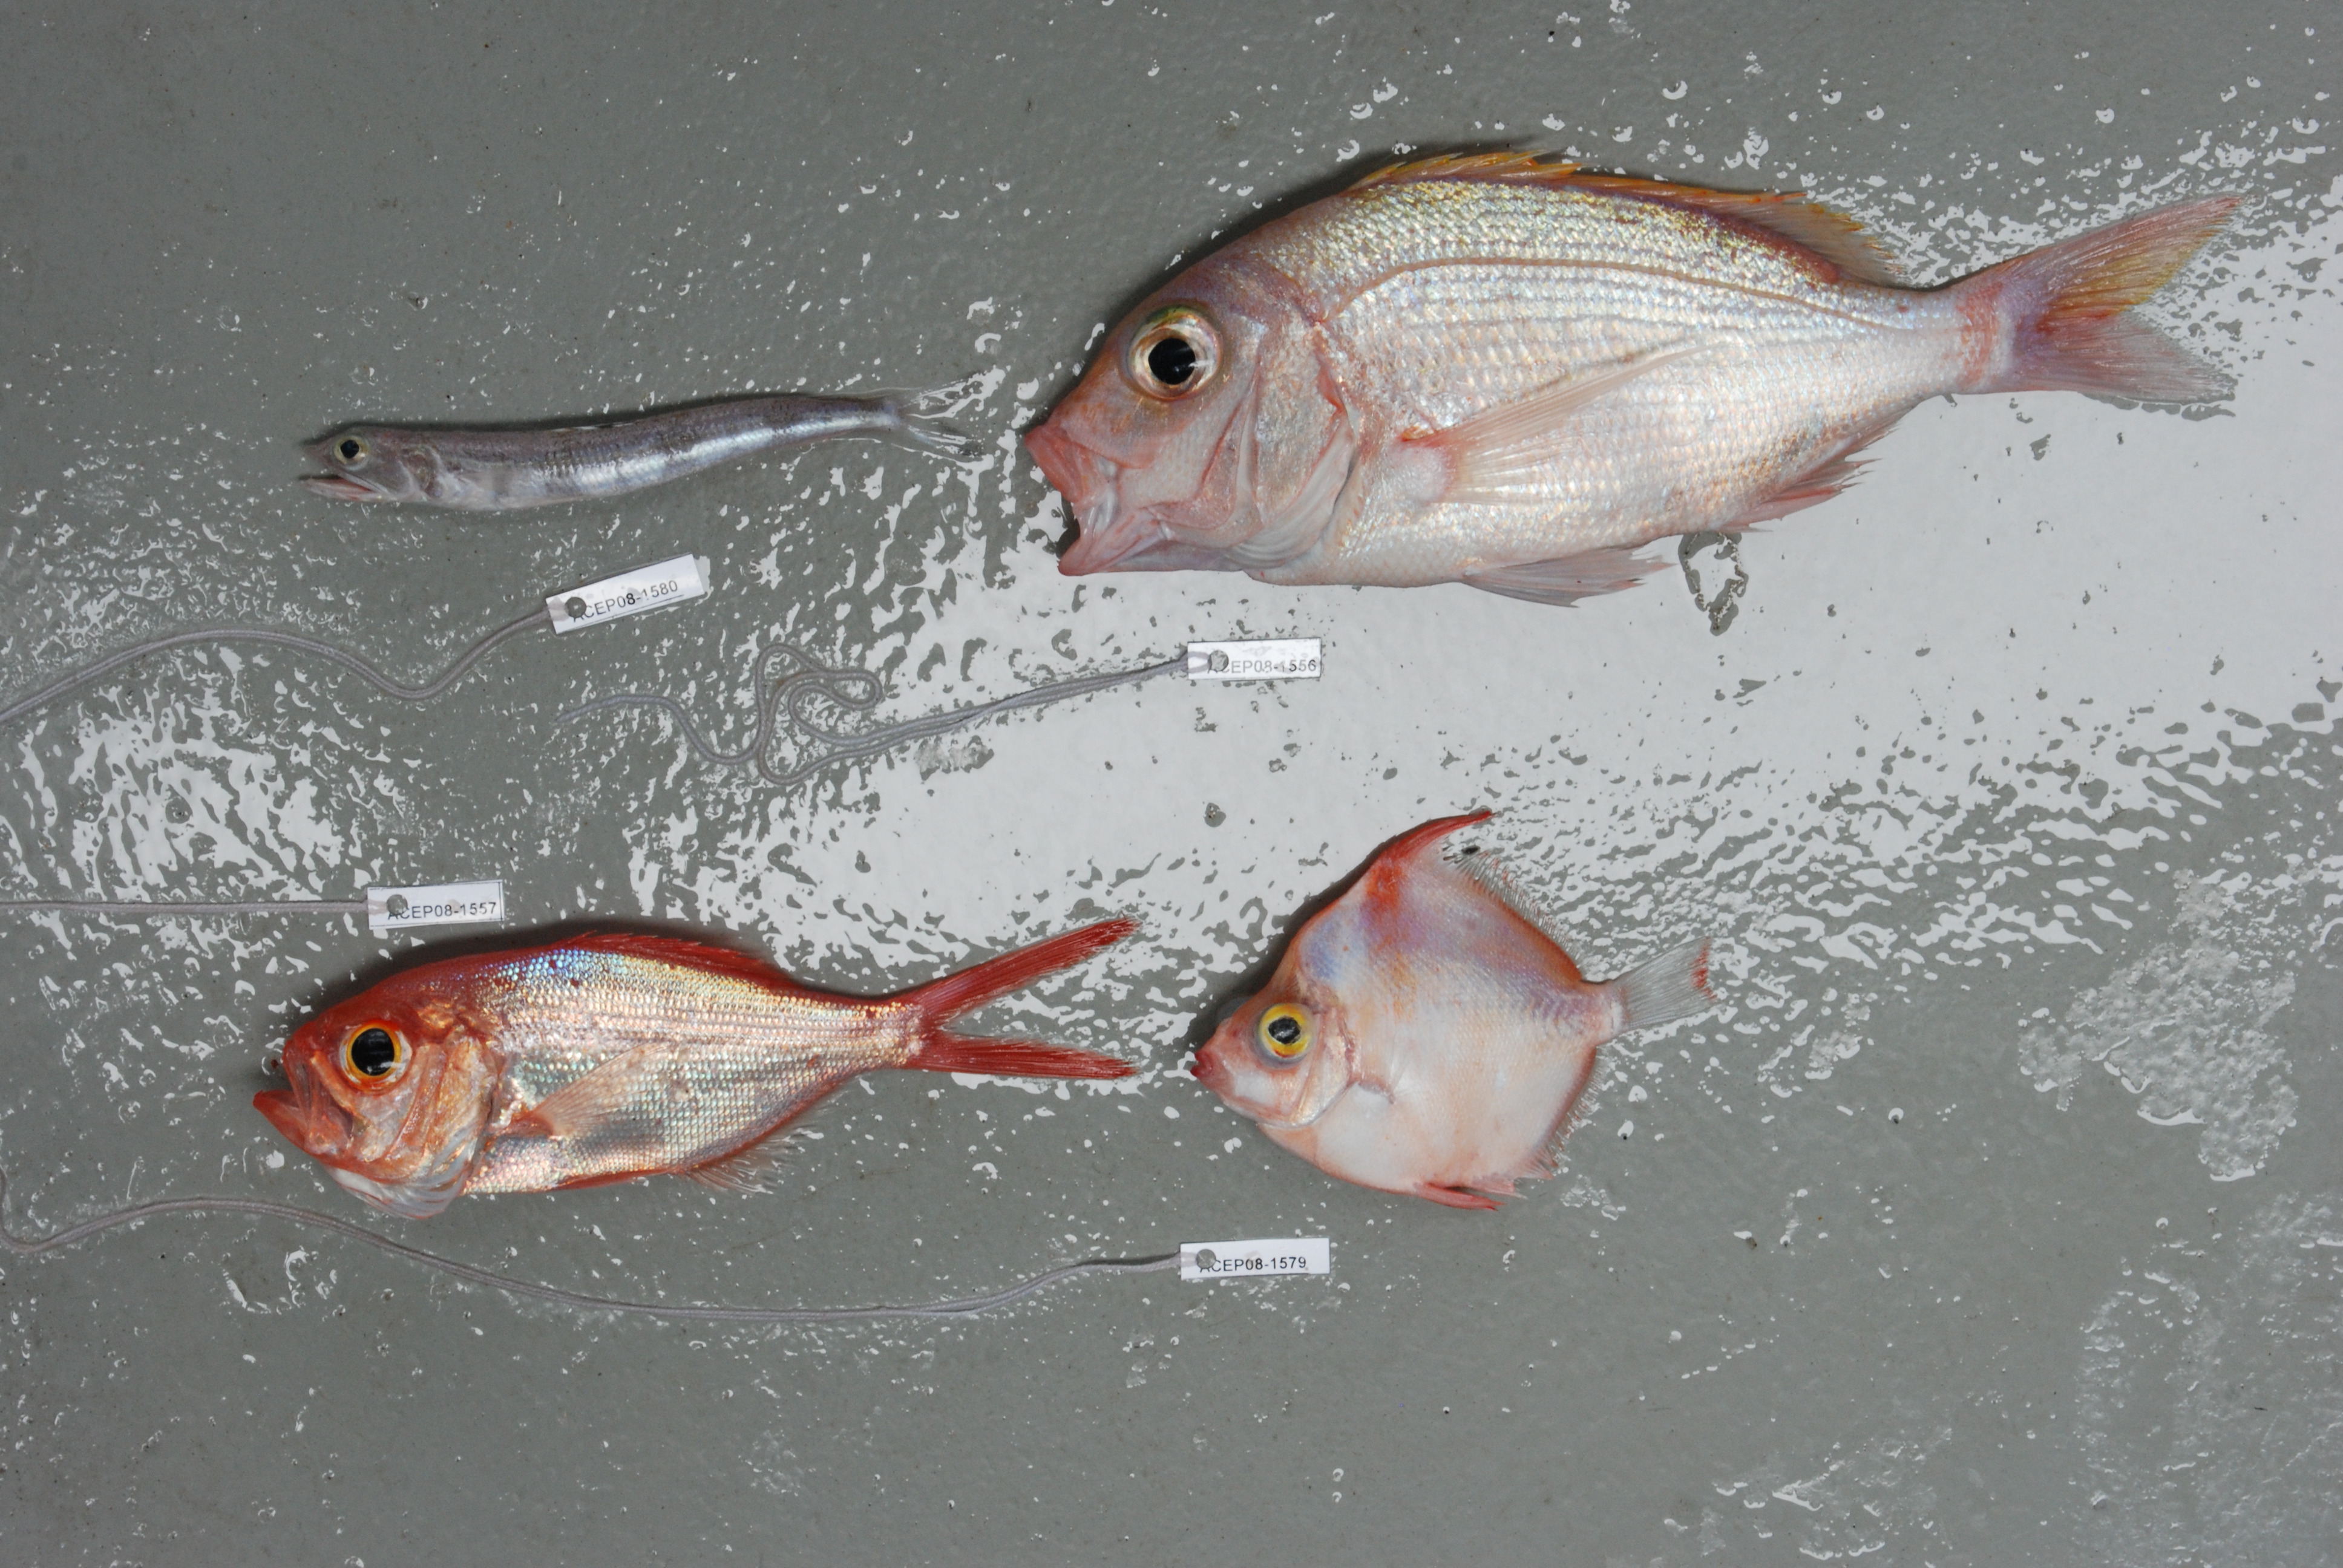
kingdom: Animalia
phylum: Chordata
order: Perciformes
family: Sparidae
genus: Polysteganus
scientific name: Polysteganus flavodorsalis
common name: Yellowfin seabream
